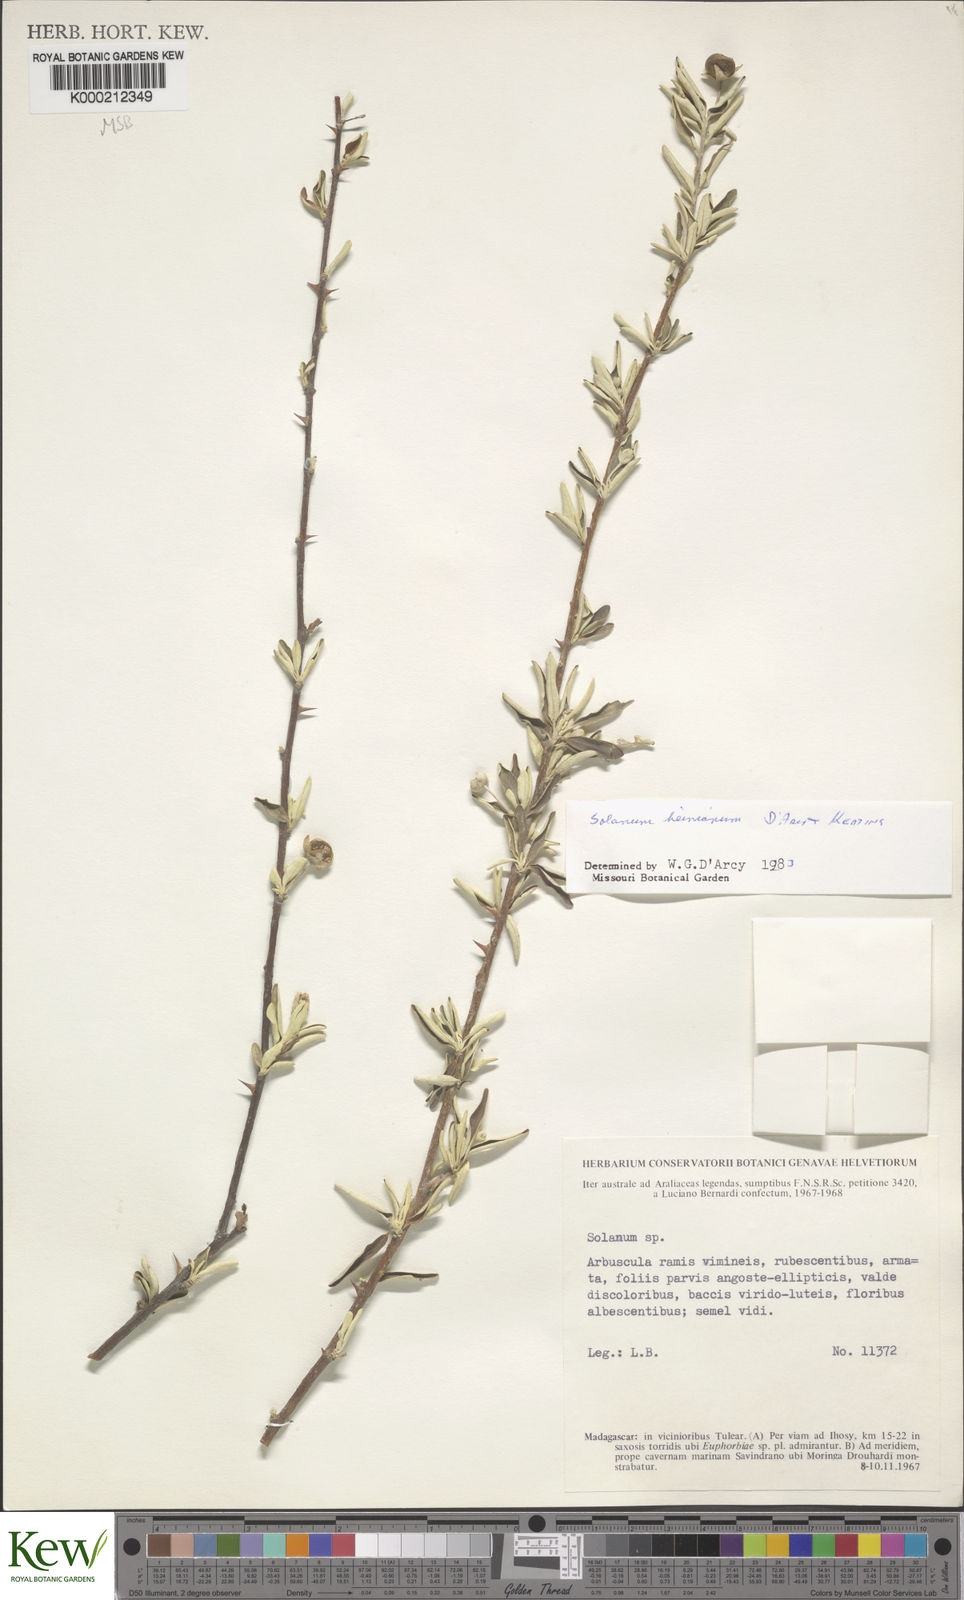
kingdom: Plantae
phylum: Tracheophyta
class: Magnoliopsida
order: Solanales
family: Solanaceae
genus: Solanum
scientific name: Solanum heinianum
